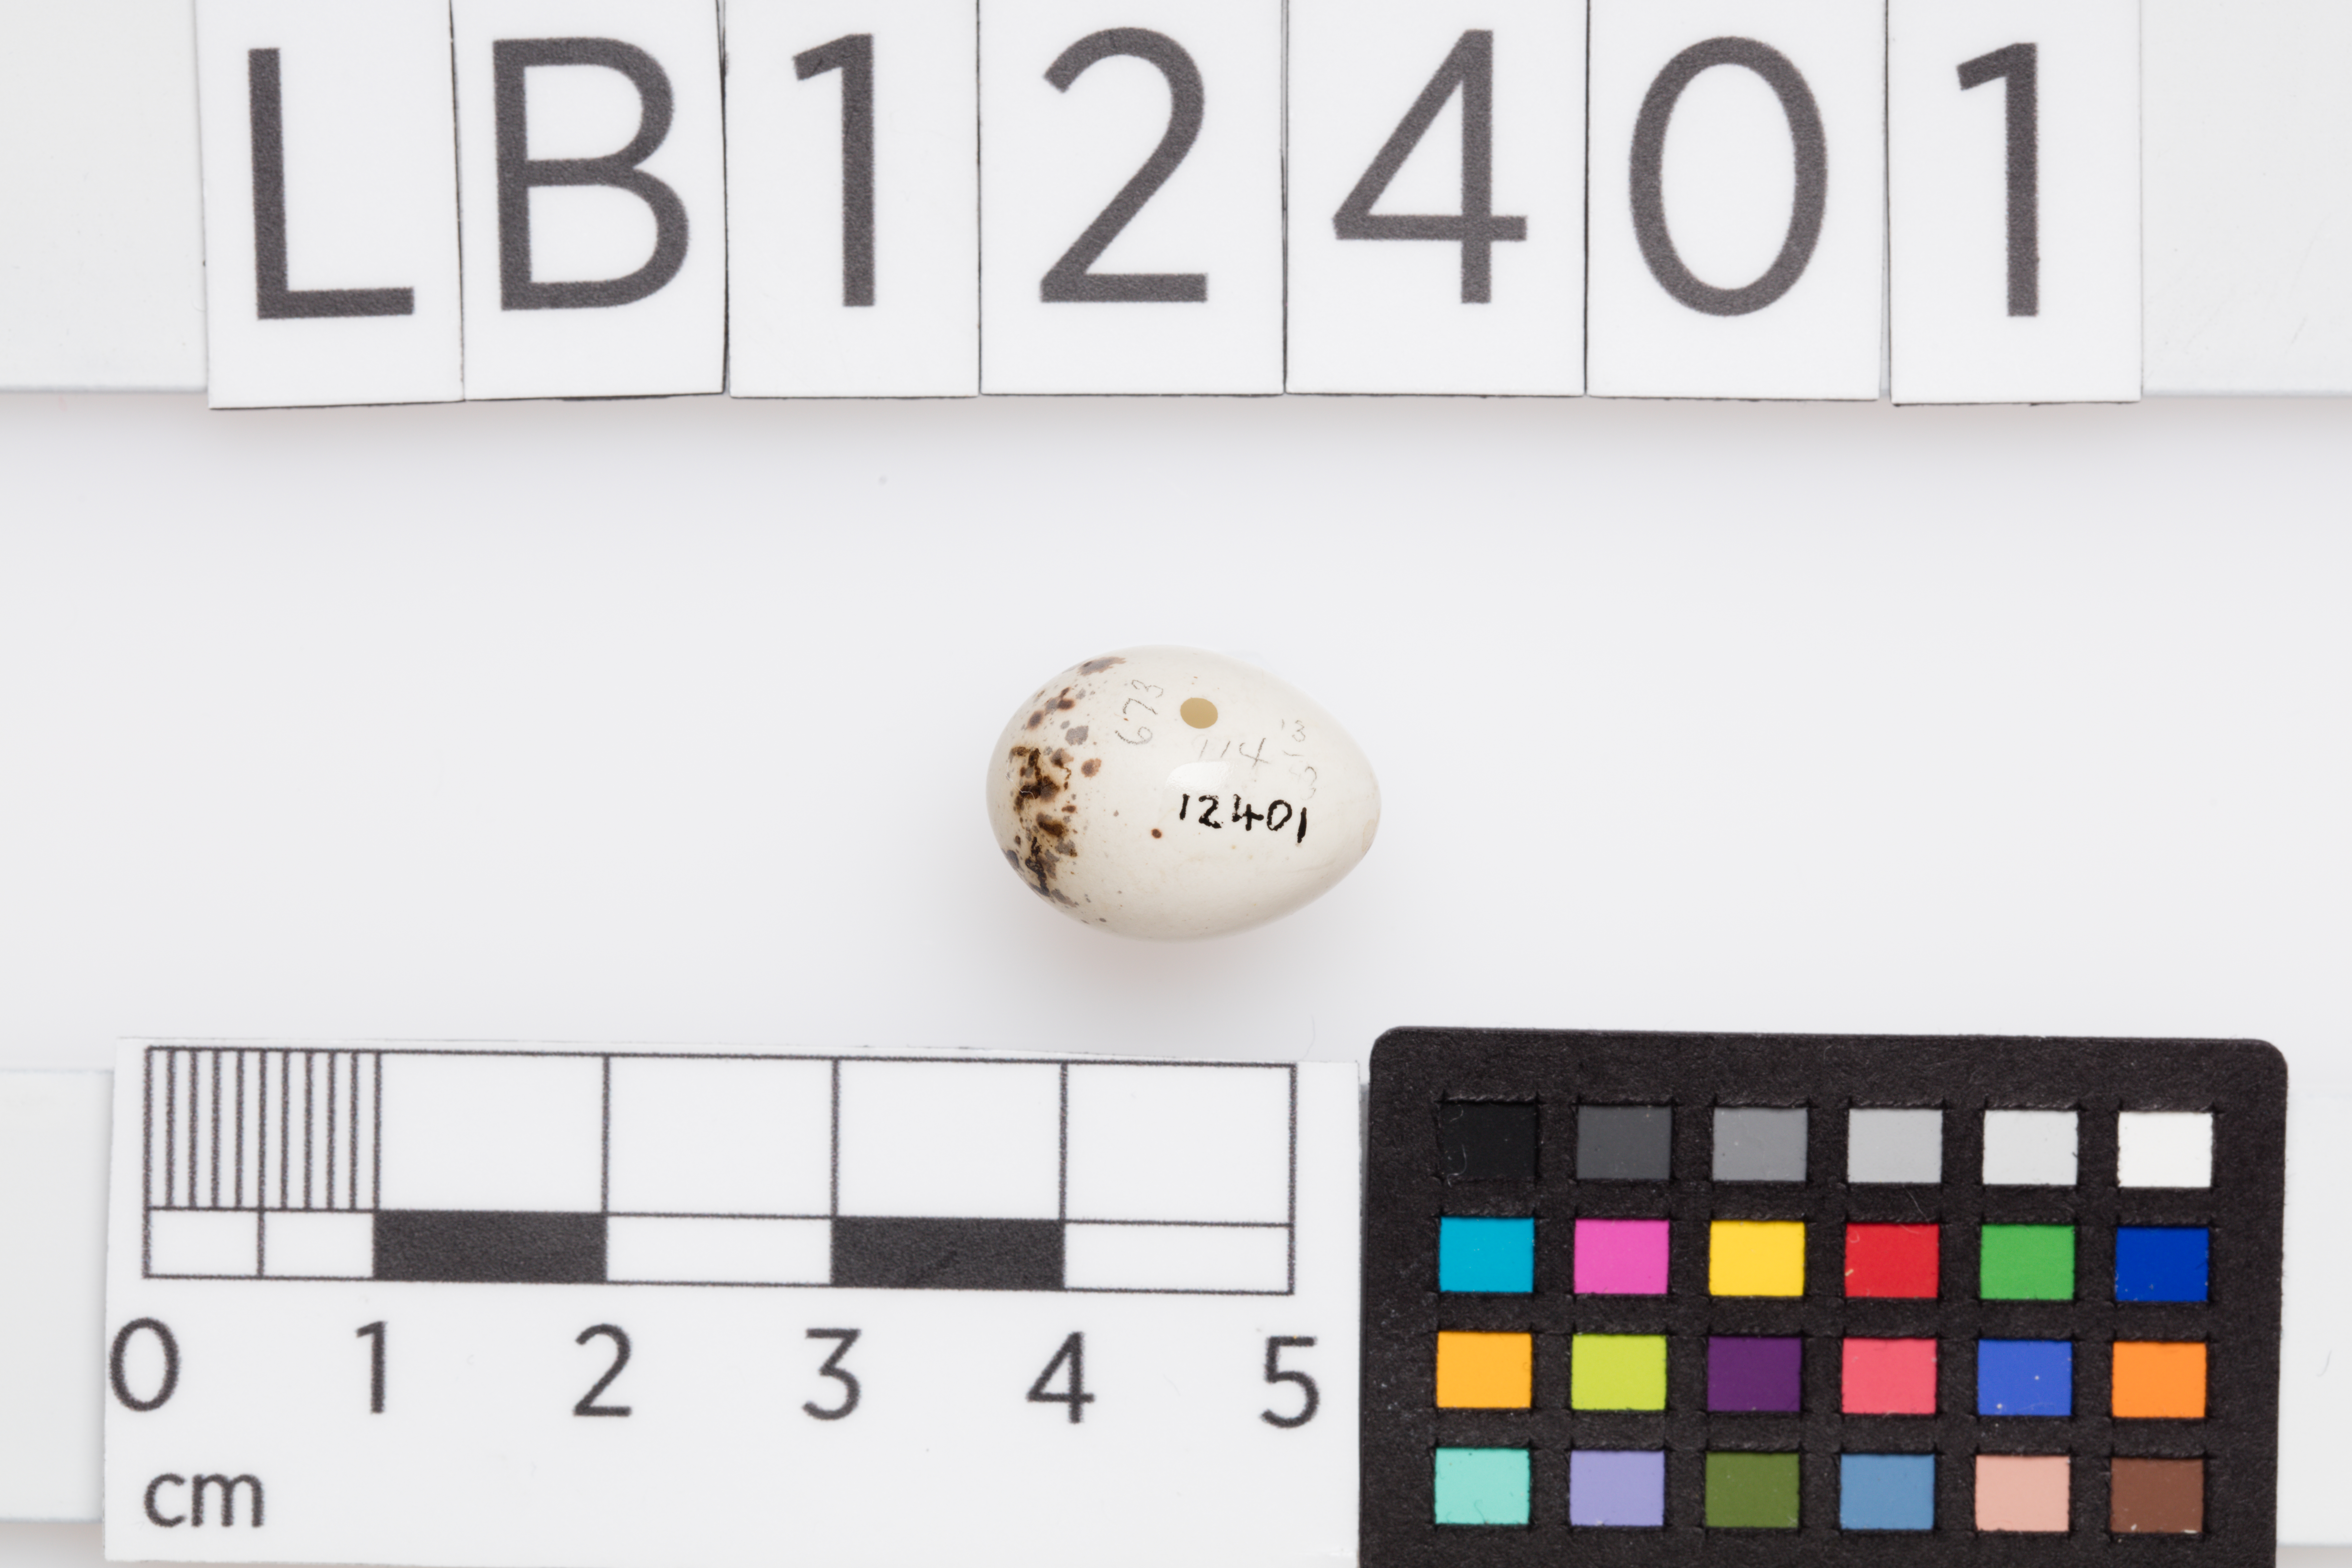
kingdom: Animalia
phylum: Chordata
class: Aves
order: Passeriformes
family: Sylviidae
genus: Sylvia
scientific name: Sylvia curruca
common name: Lesser whitethroat
